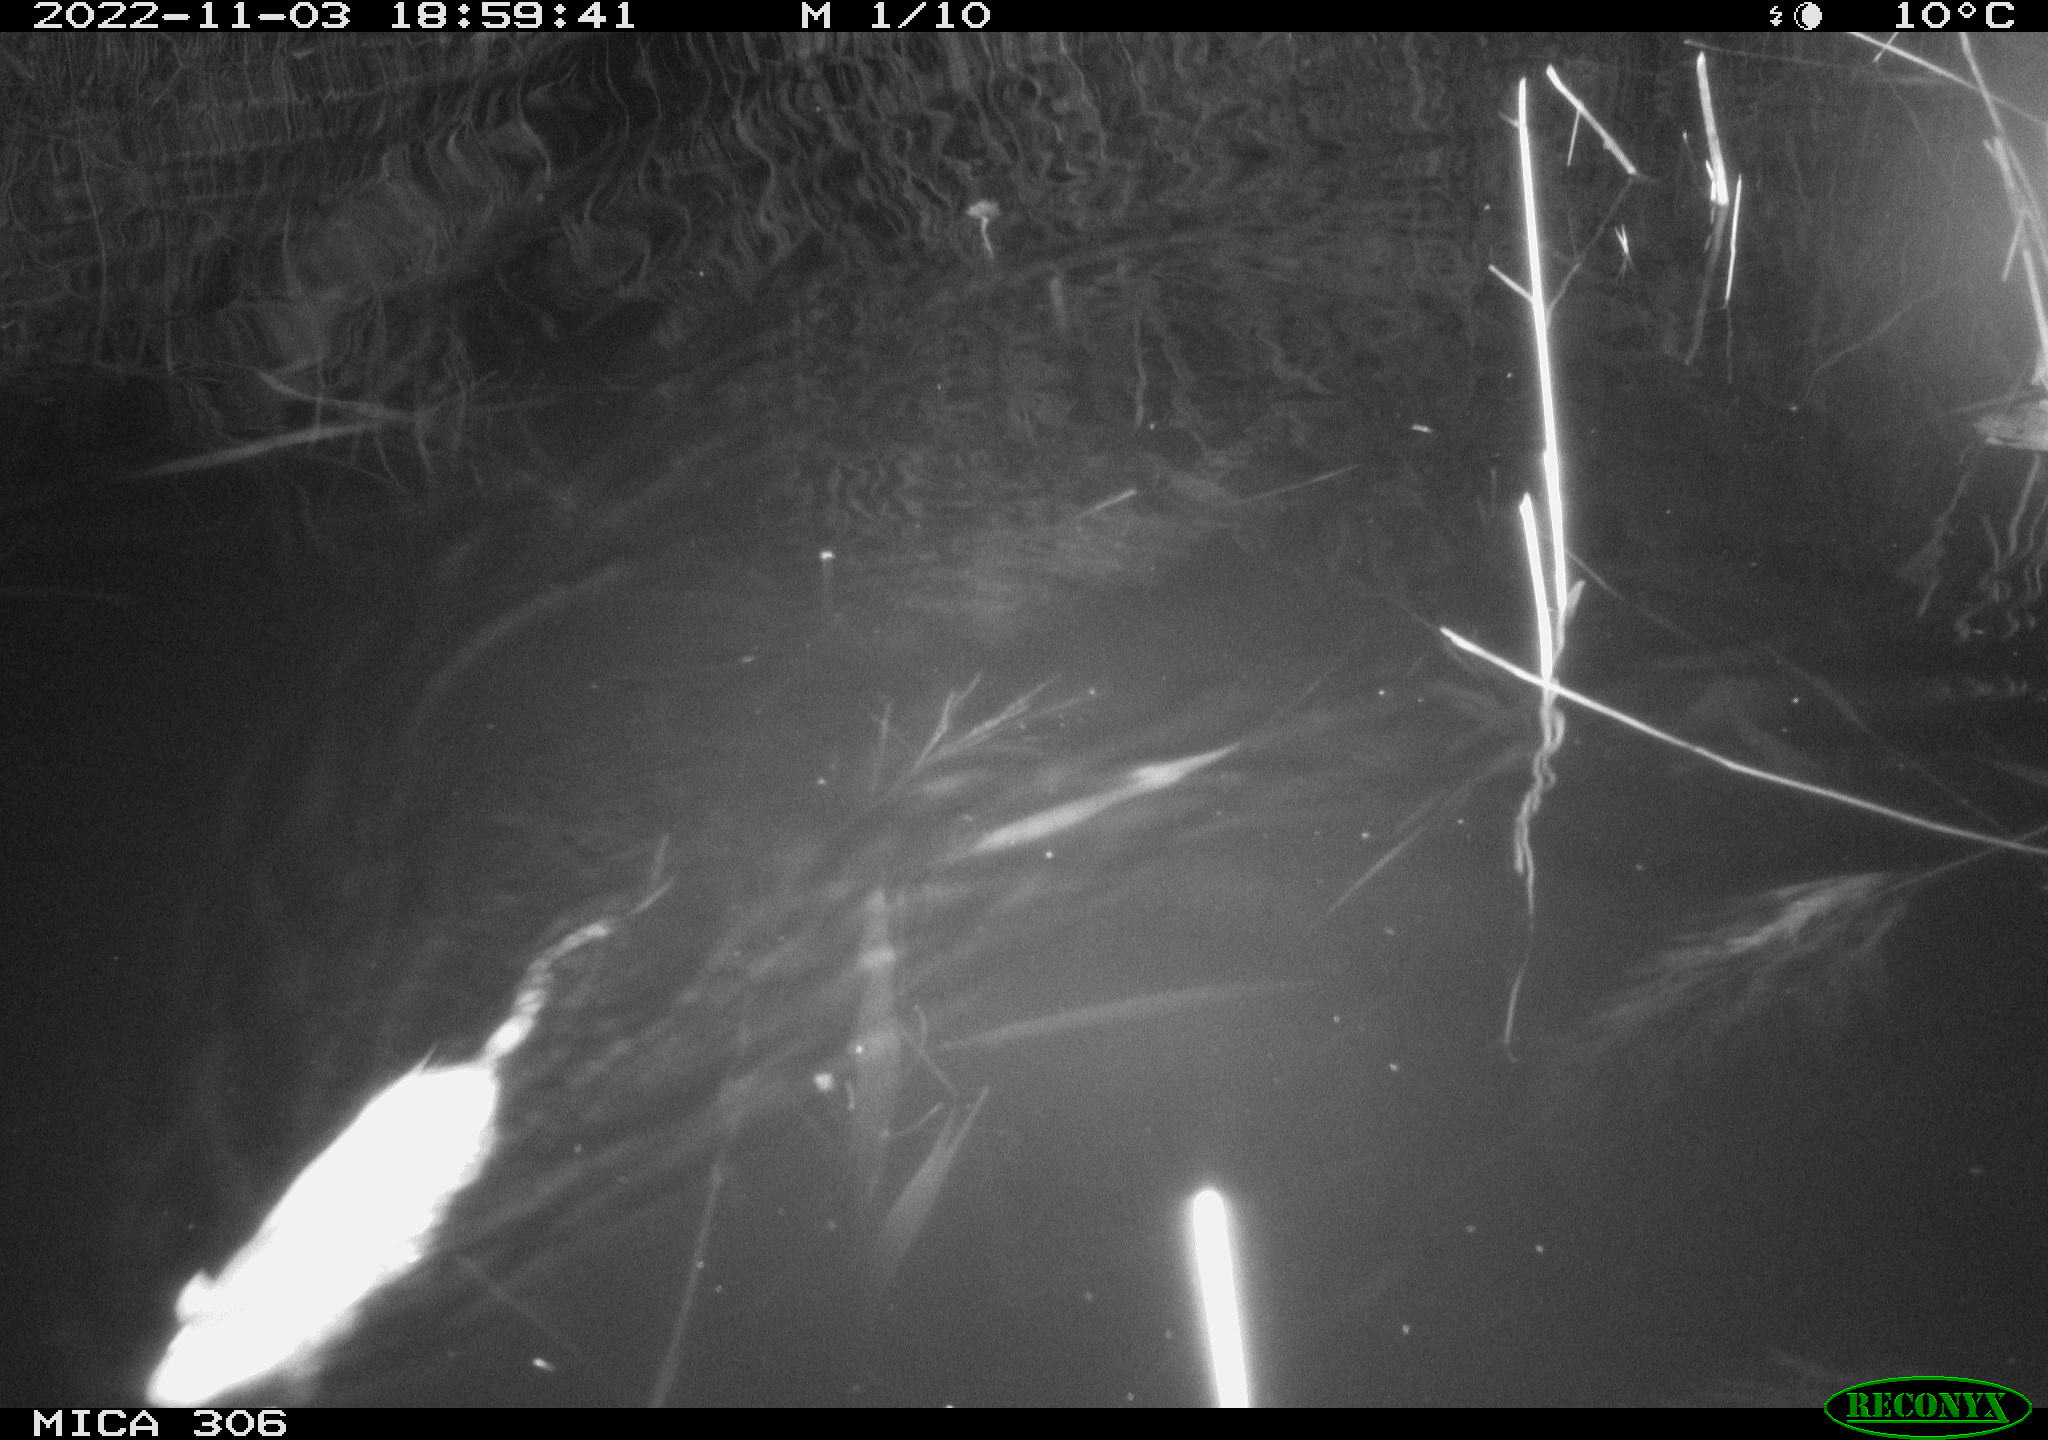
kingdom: Animalia
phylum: Chordata
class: Mammalia
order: Rodentia
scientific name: Rodentia
